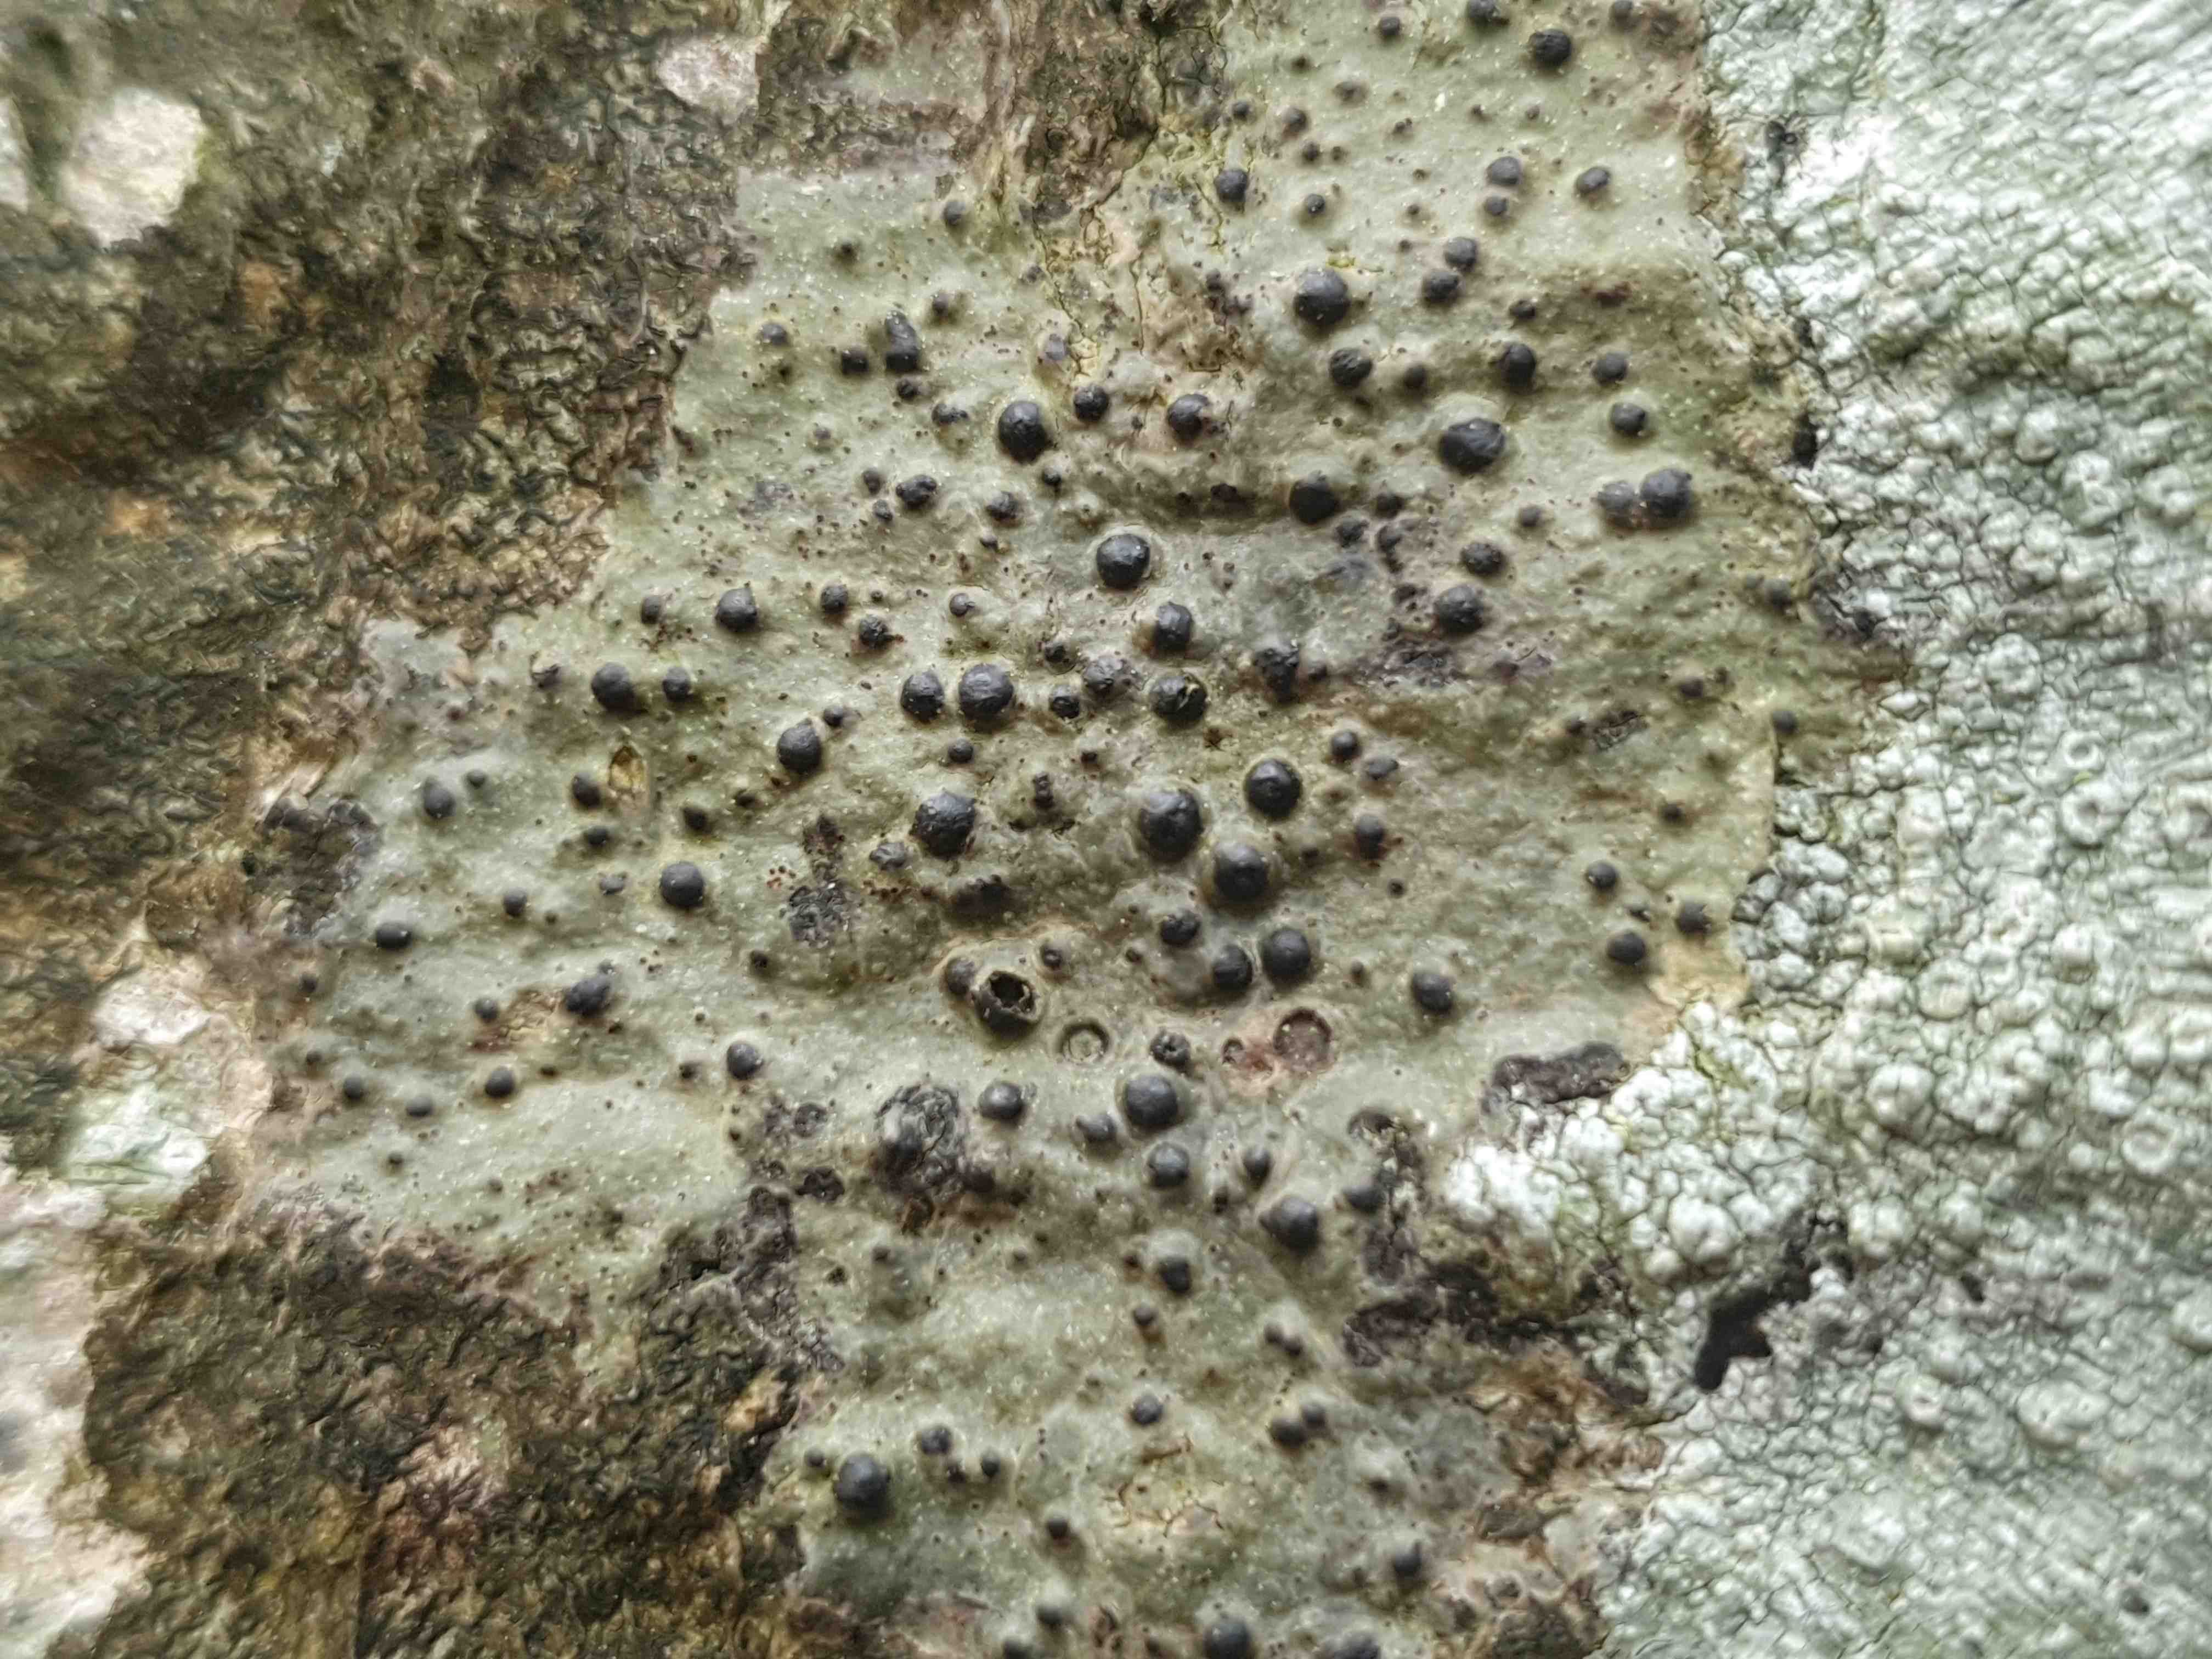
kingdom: Fungi
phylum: Ascomycota
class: Eurotiomycetes
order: Pyrenulales
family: Pyrenulaceae
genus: Pyrenula
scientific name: Pyrenula nitida
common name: glinsende kernelav
